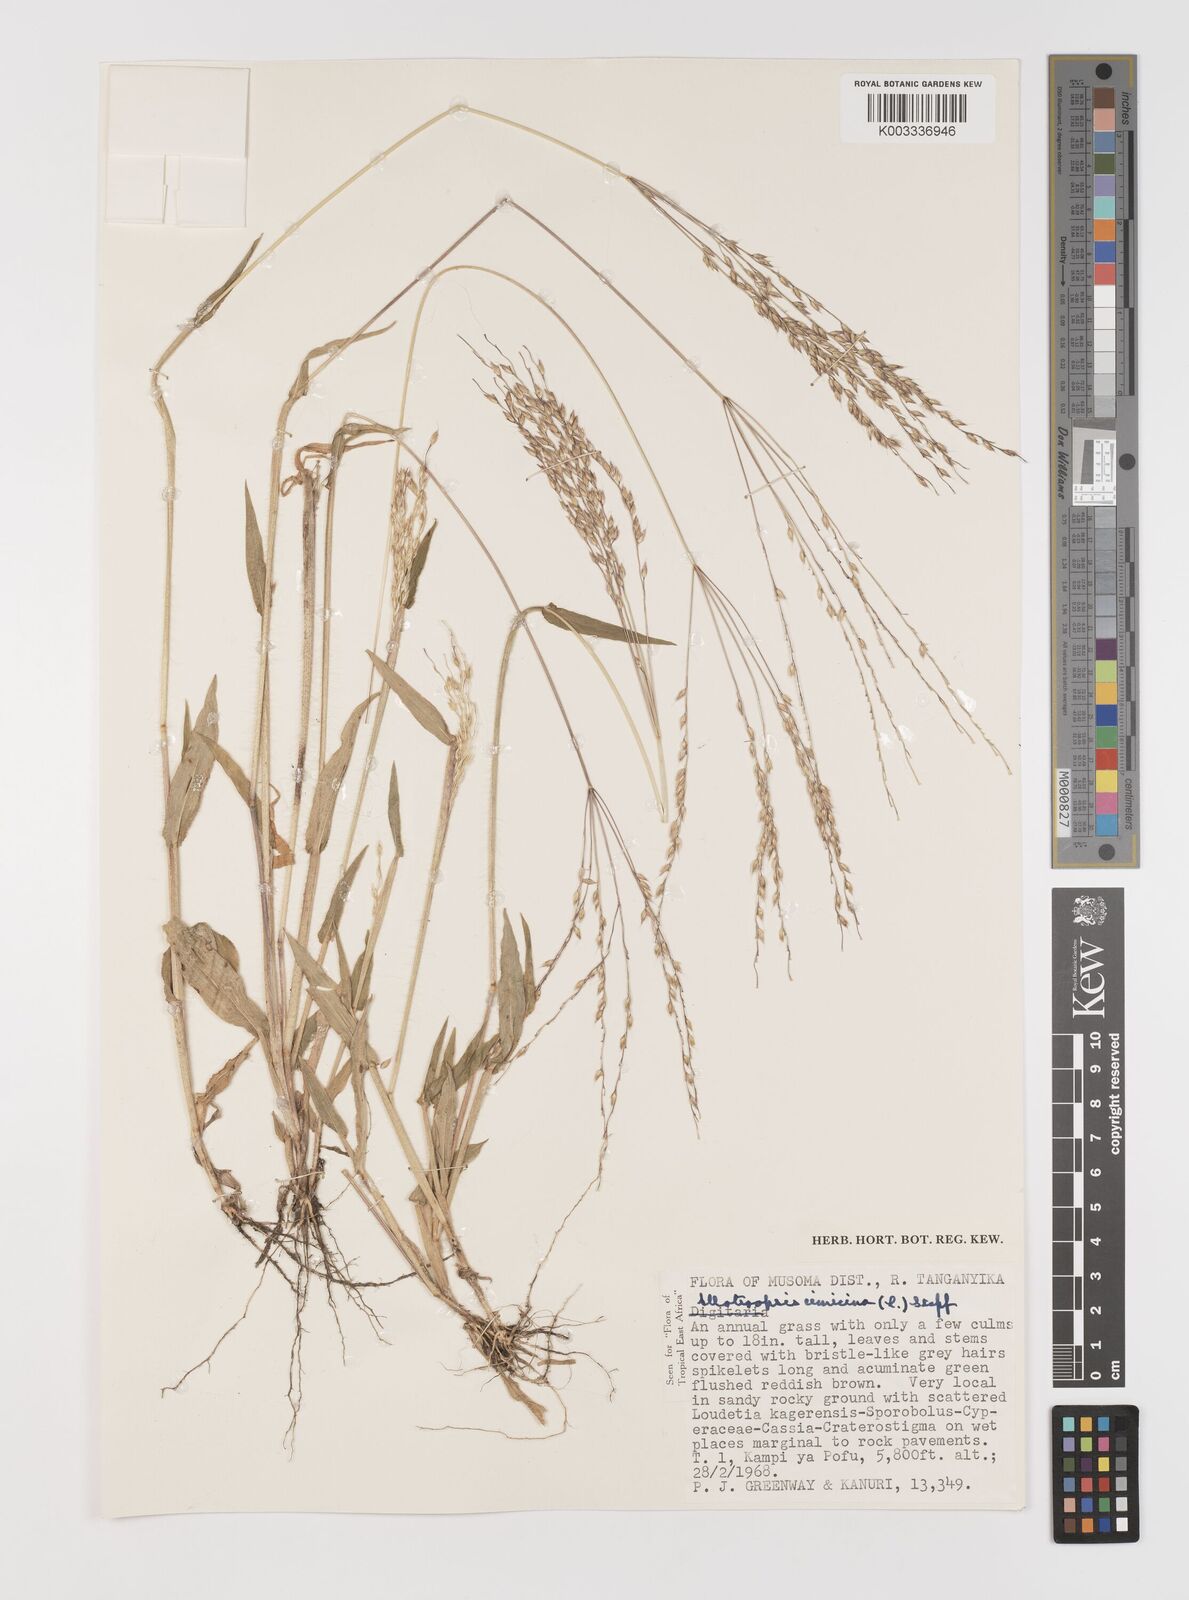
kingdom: Plantae
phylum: Tracheophyta
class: Liliopsida
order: Poales
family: Poaceae
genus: Alloteropsis
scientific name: Alloteropsis cimicina
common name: Summergrass
